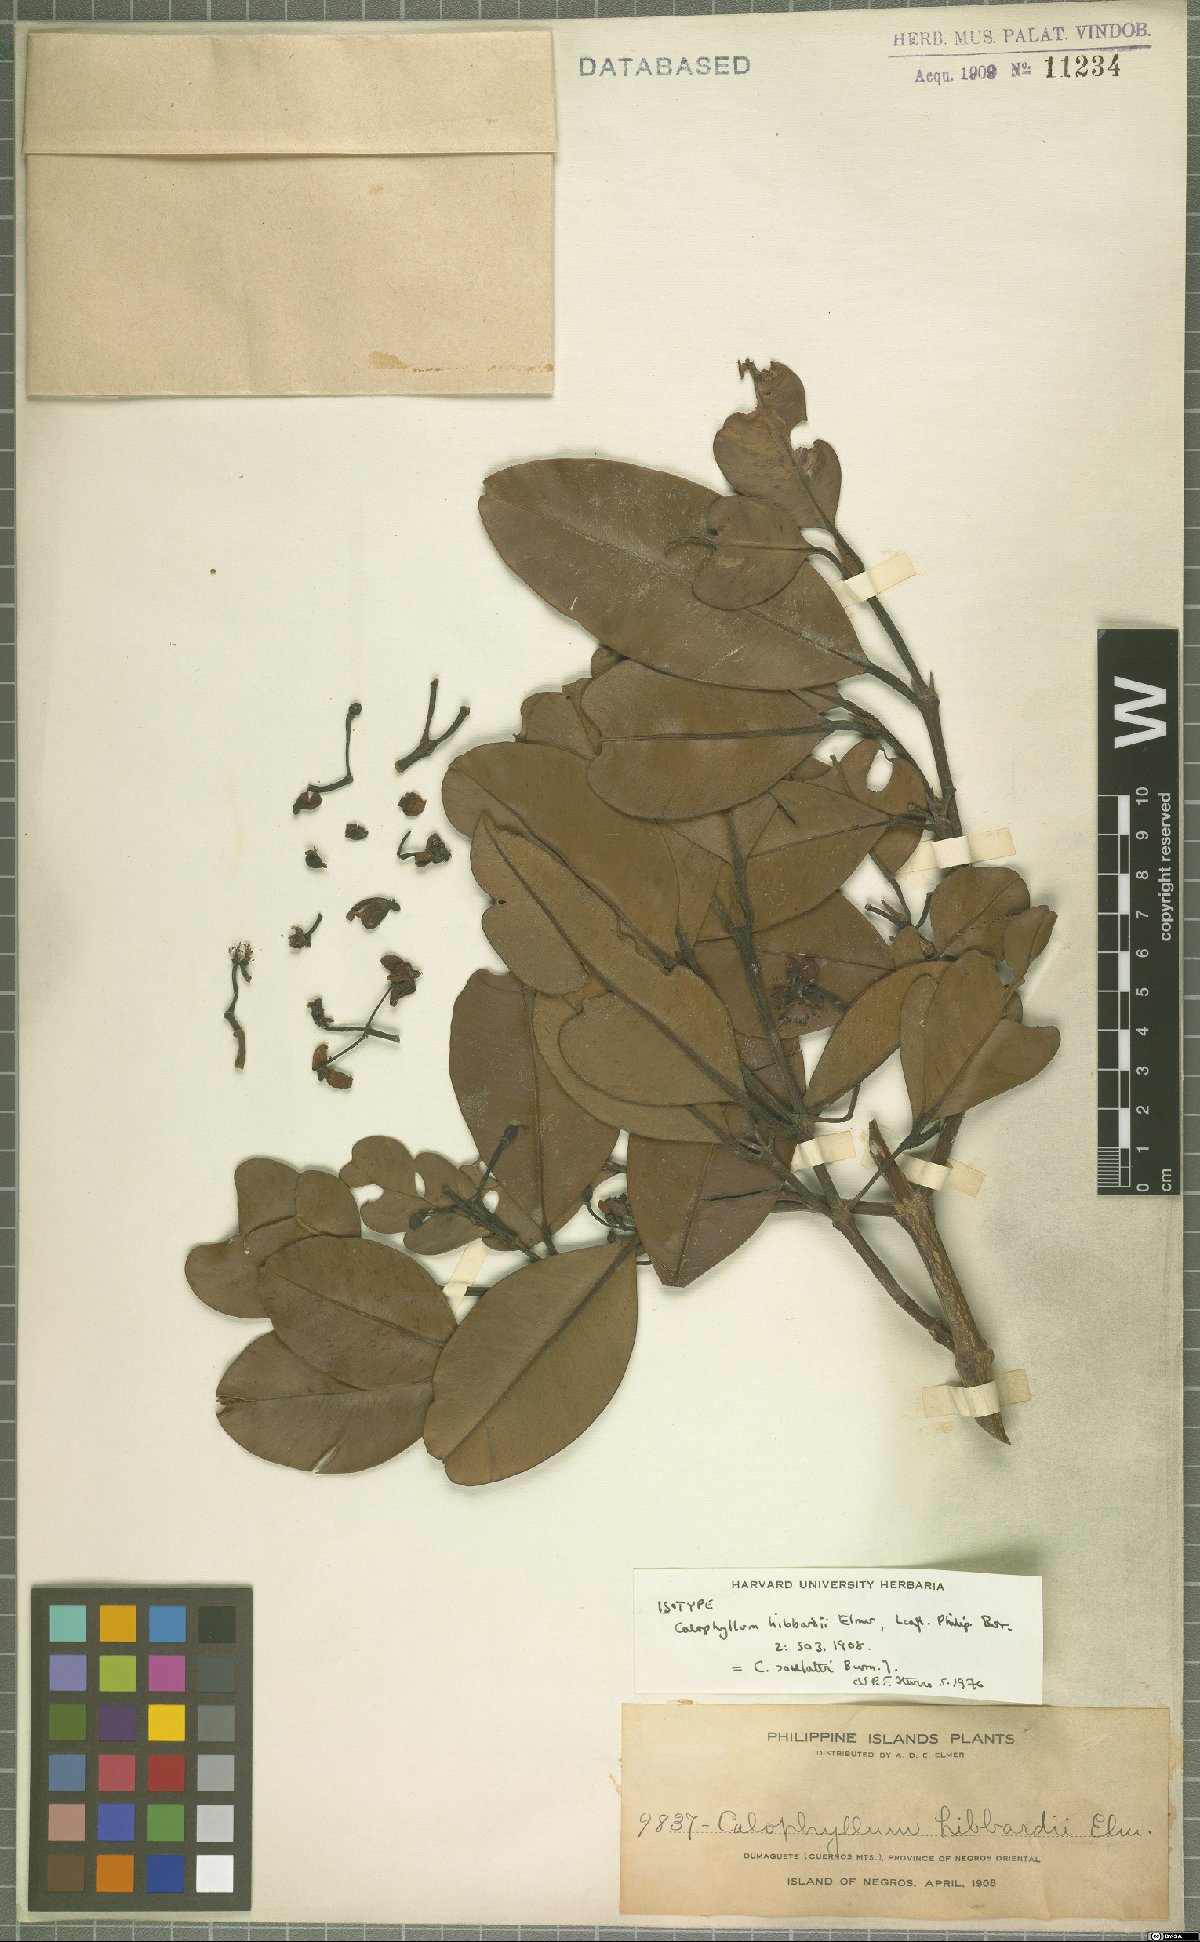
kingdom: Plantae
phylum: Tracheophyta
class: Magnoliopsida
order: Malpighiales
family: Calophyllaceae
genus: Calophyllum
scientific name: Calophyllum soulattri
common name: Bitangoor boonot
